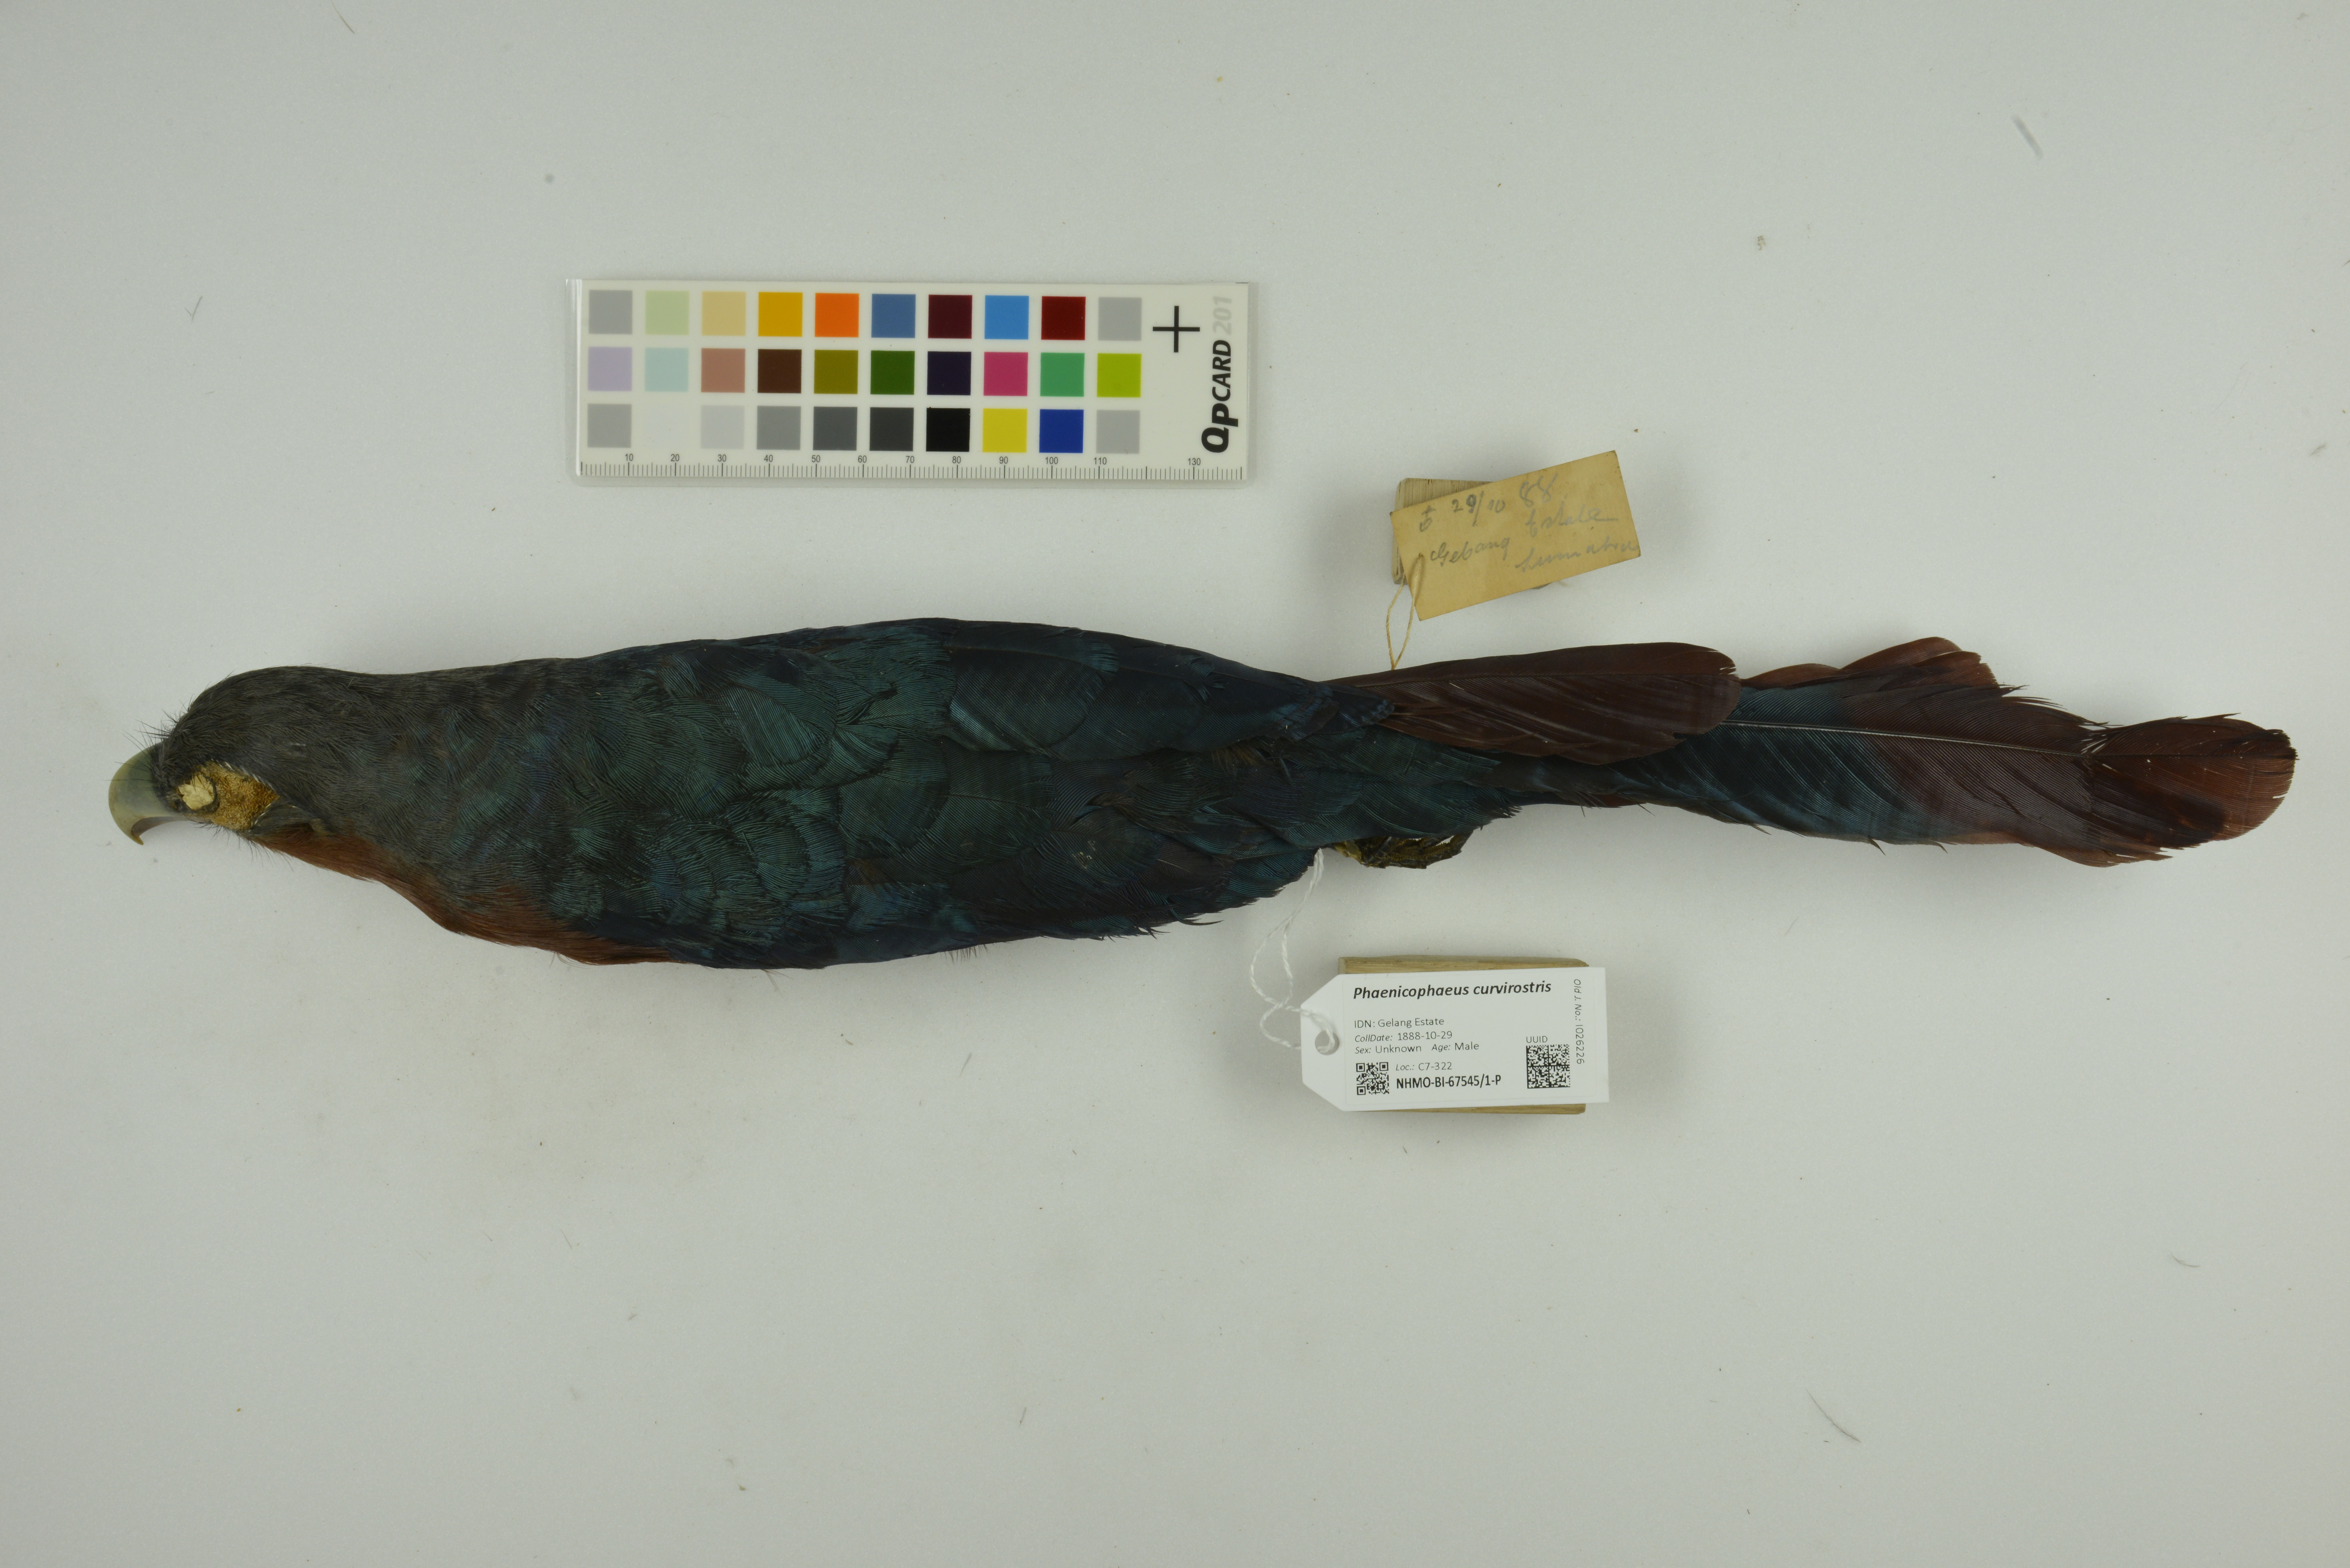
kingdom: Animalia
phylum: Chordata
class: Aves
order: Cuculiformes
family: Cuculidae
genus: Zanclostomus
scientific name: Zanclostomus curvirostris
